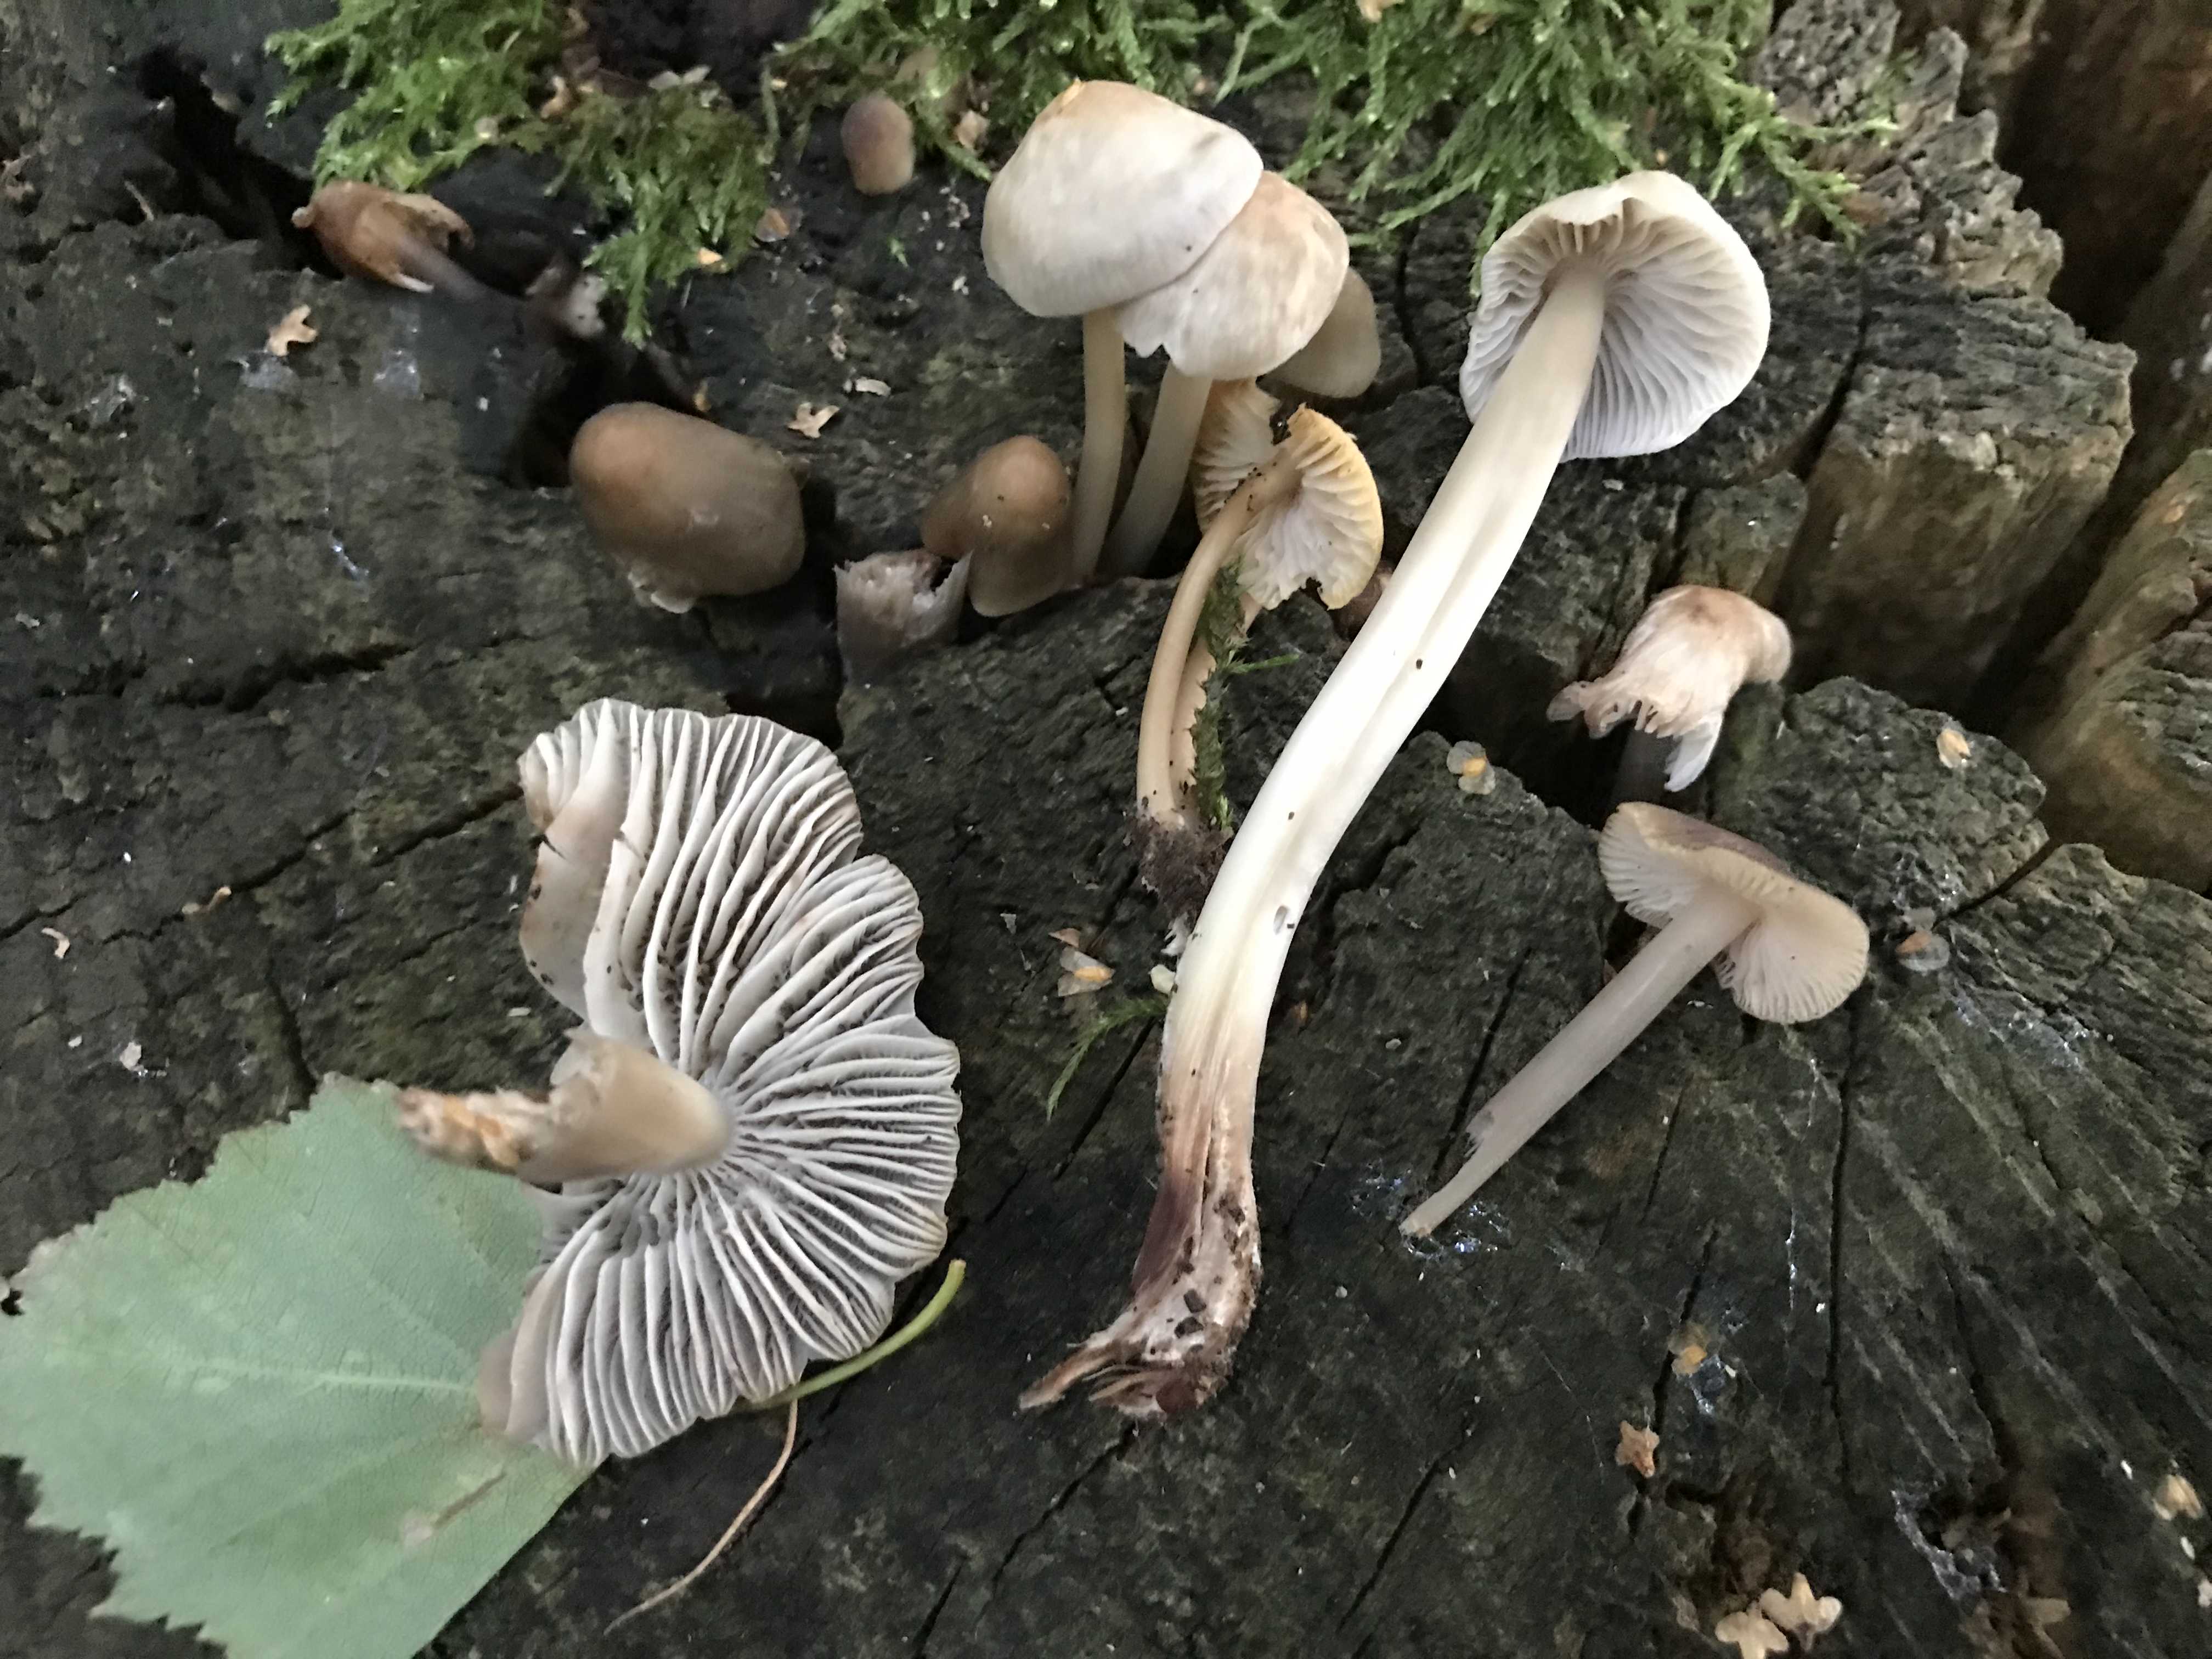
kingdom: Fungi
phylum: Basidiomycota
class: Agaricomycetes
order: Agaricales
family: Mycenaceae
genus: Mycena
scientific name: Mycena galericulata
